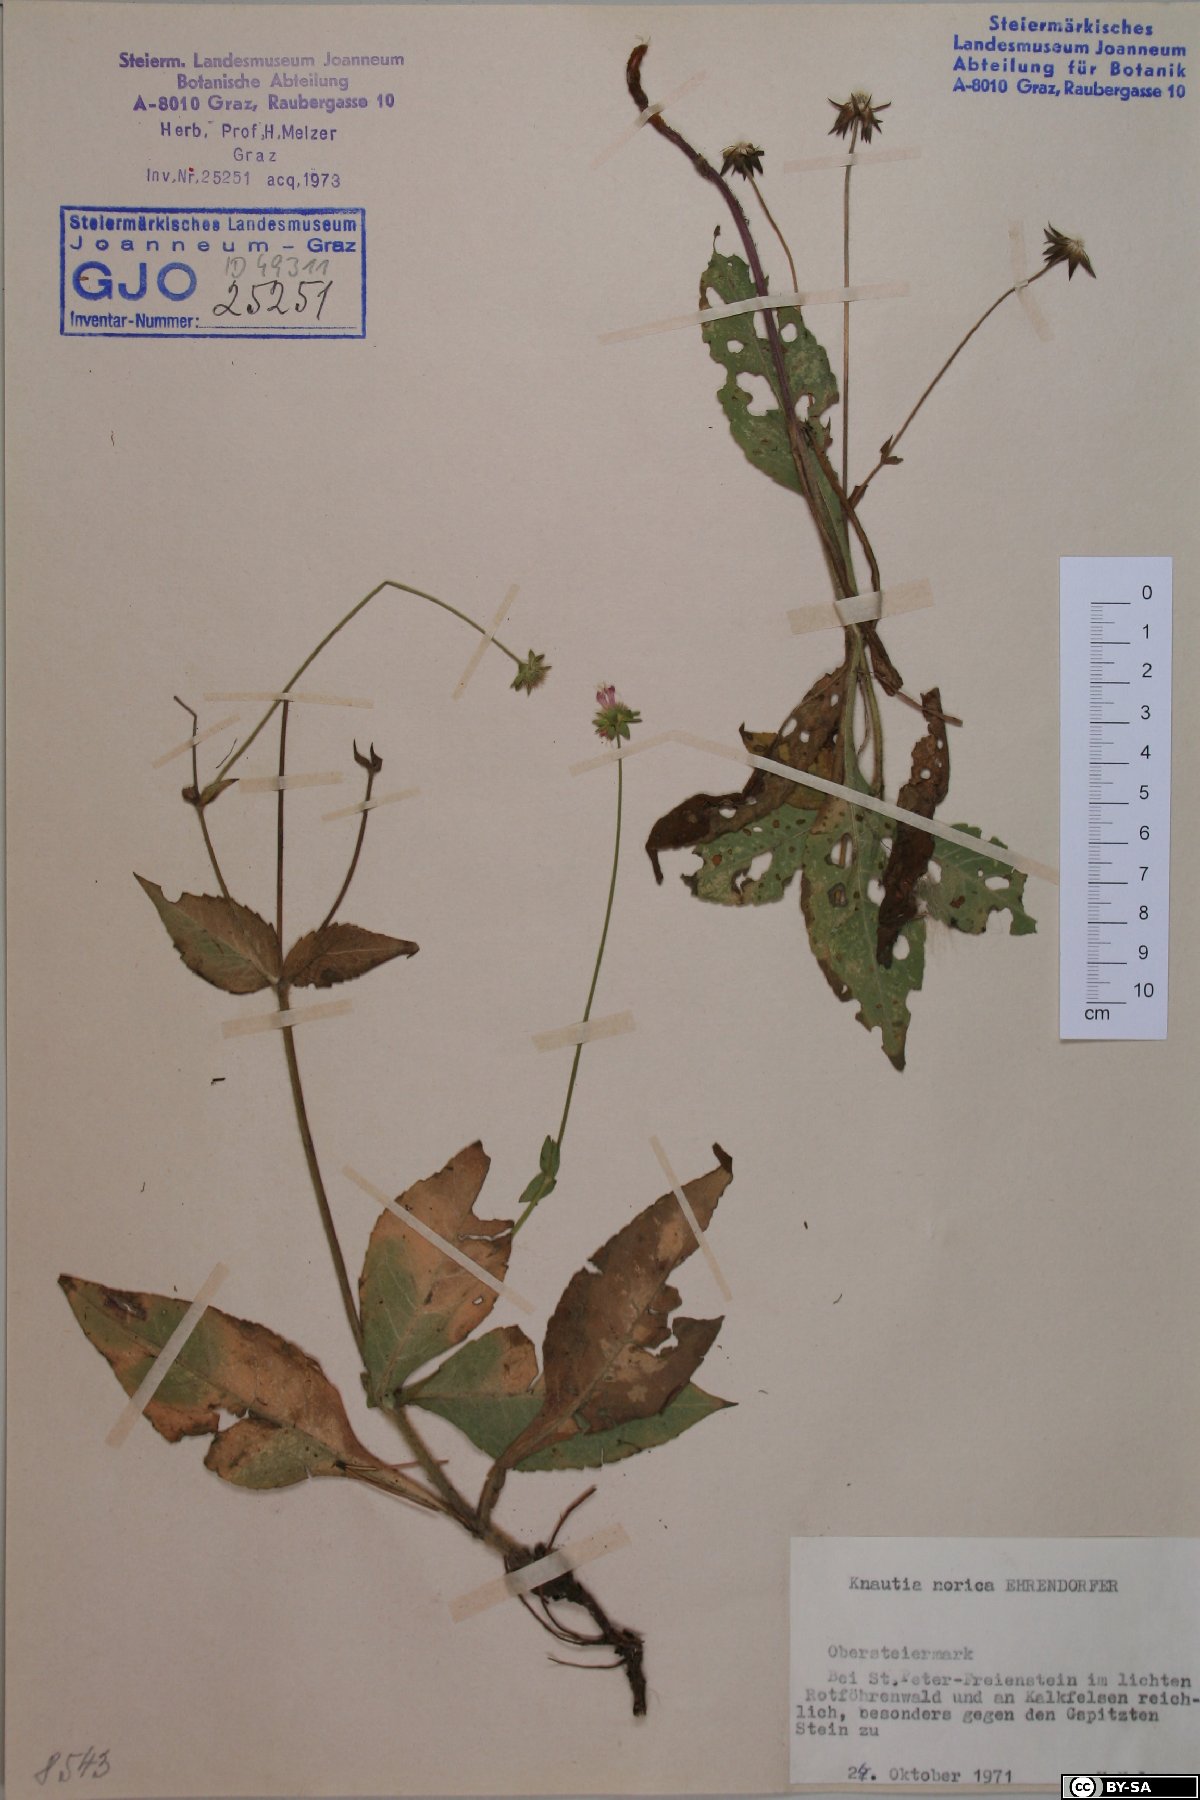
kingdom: Plantae
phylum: Tracheophyta
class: Magnoliopsida
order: Dipsacales
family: Caprifoliaceae
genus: Knautia
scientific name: Knautia norica
